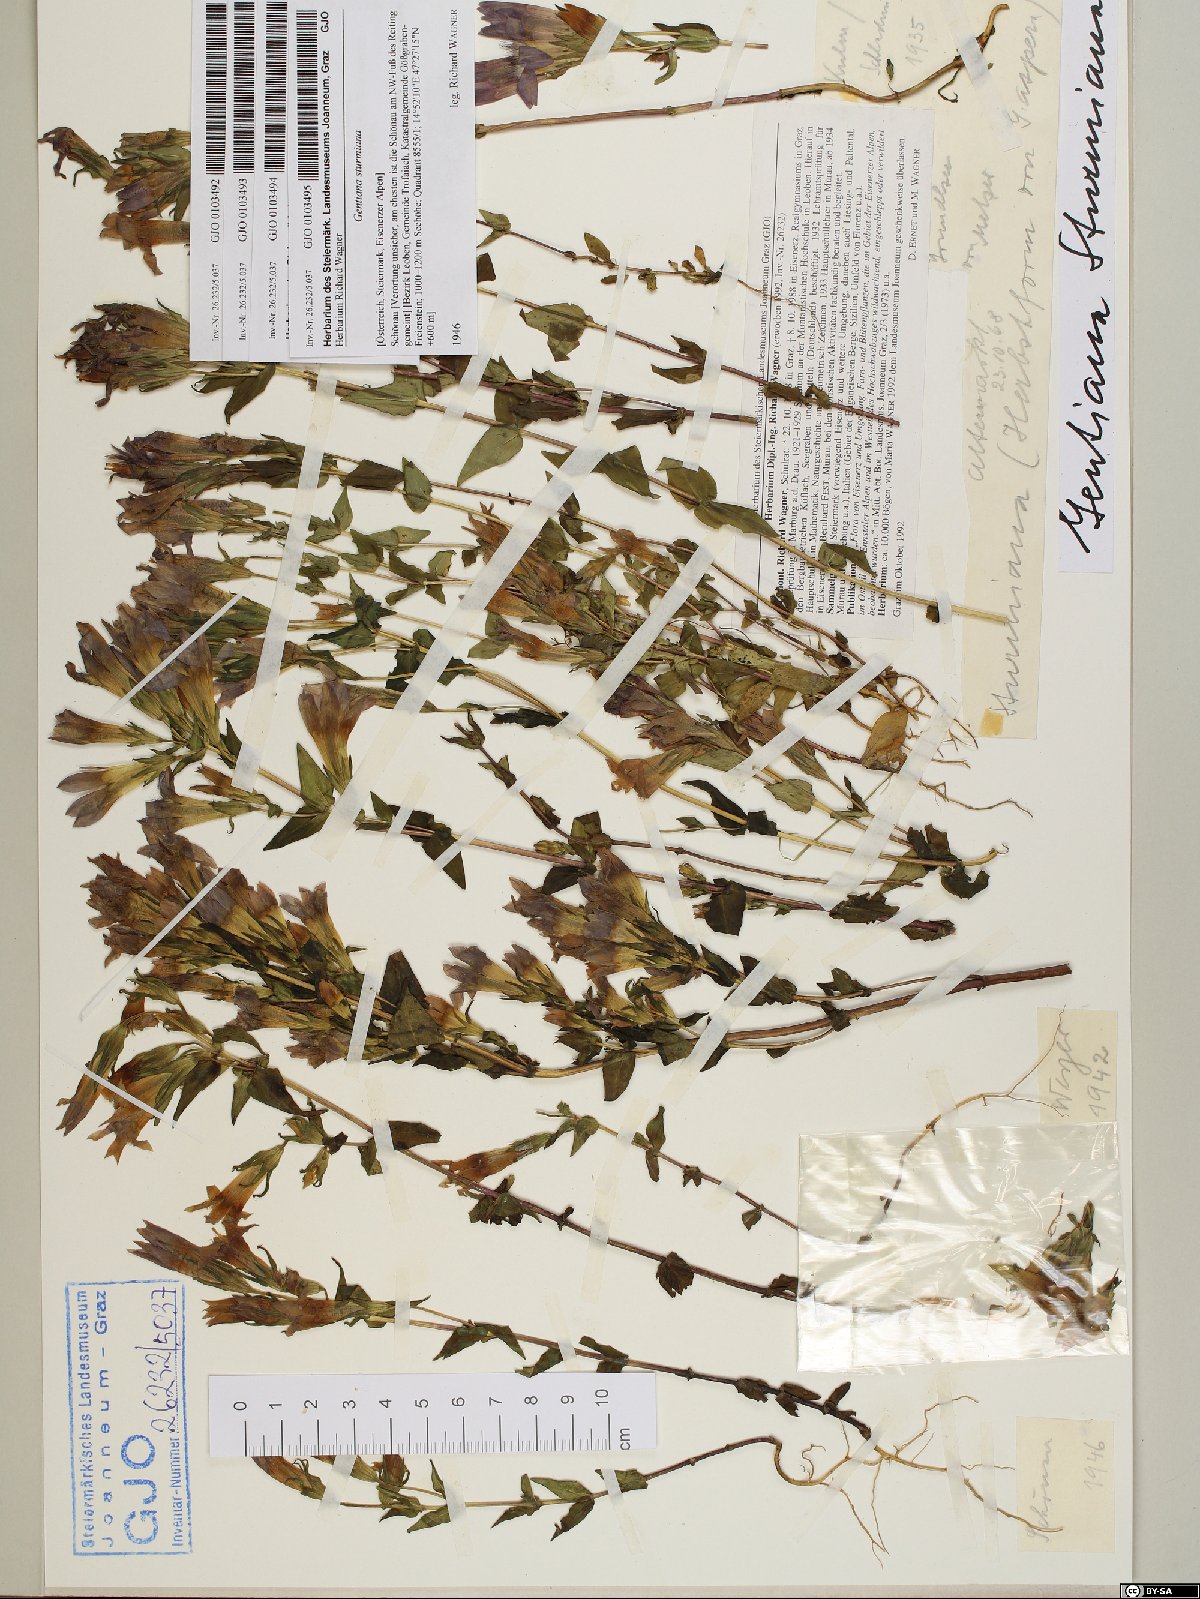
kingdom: Plantae
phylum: Tracheophyta
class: Magnoliopsida
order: Gentianales
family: Gentianaceae
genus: Gentianella
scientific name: Gentianella obtusifolia
